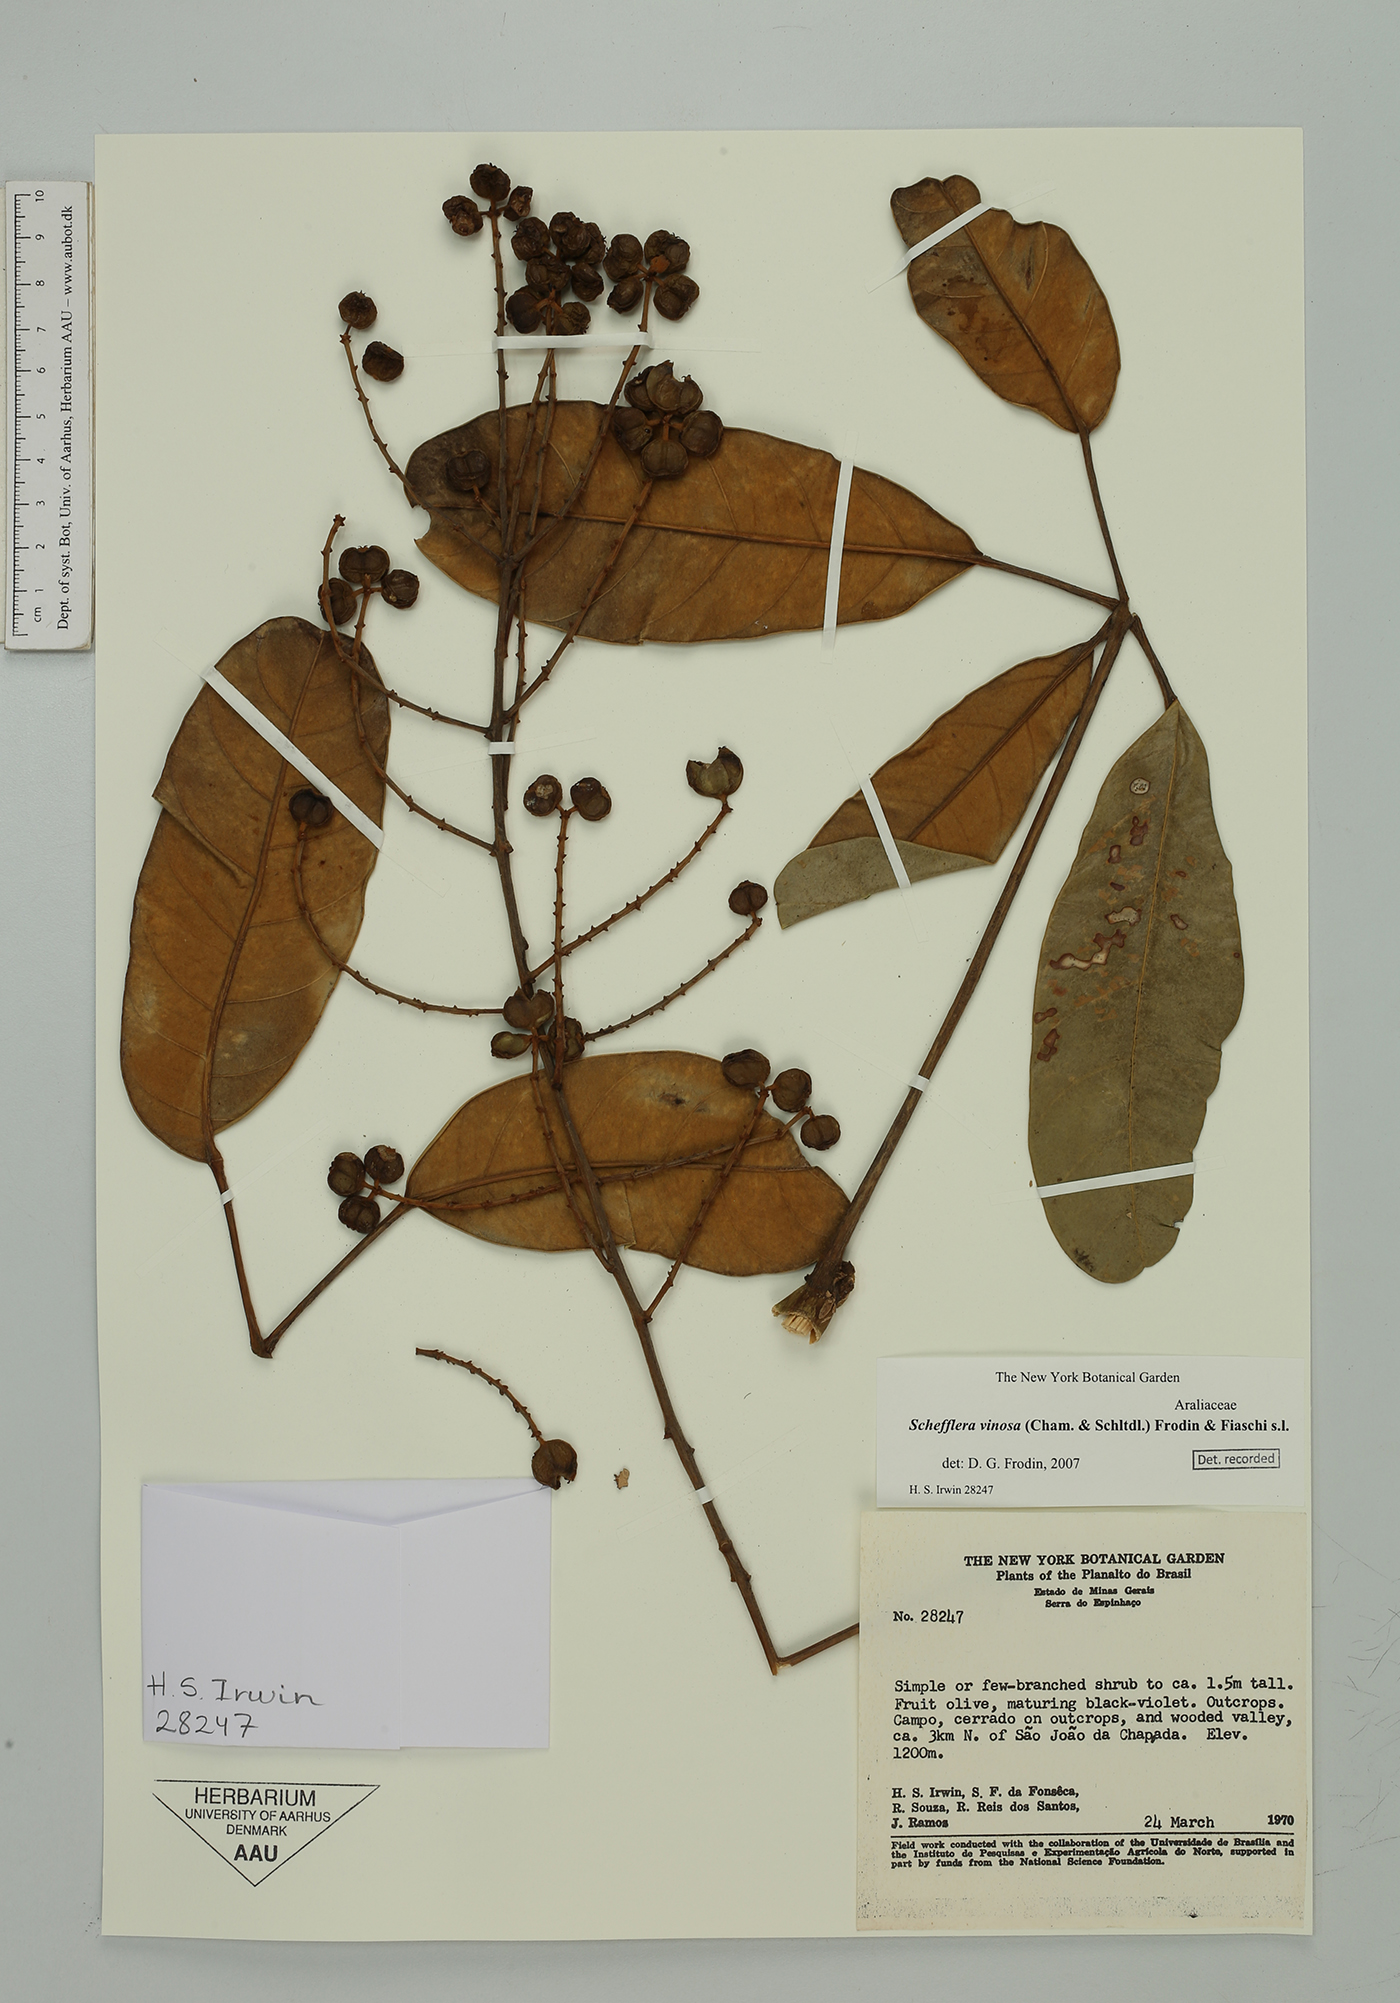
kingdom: Plantae
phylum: Tracheophyta
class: Magnoliopsida
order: Apiales
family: Araliaceae
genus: Didymopanax
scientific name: Didymopanax vinosus
